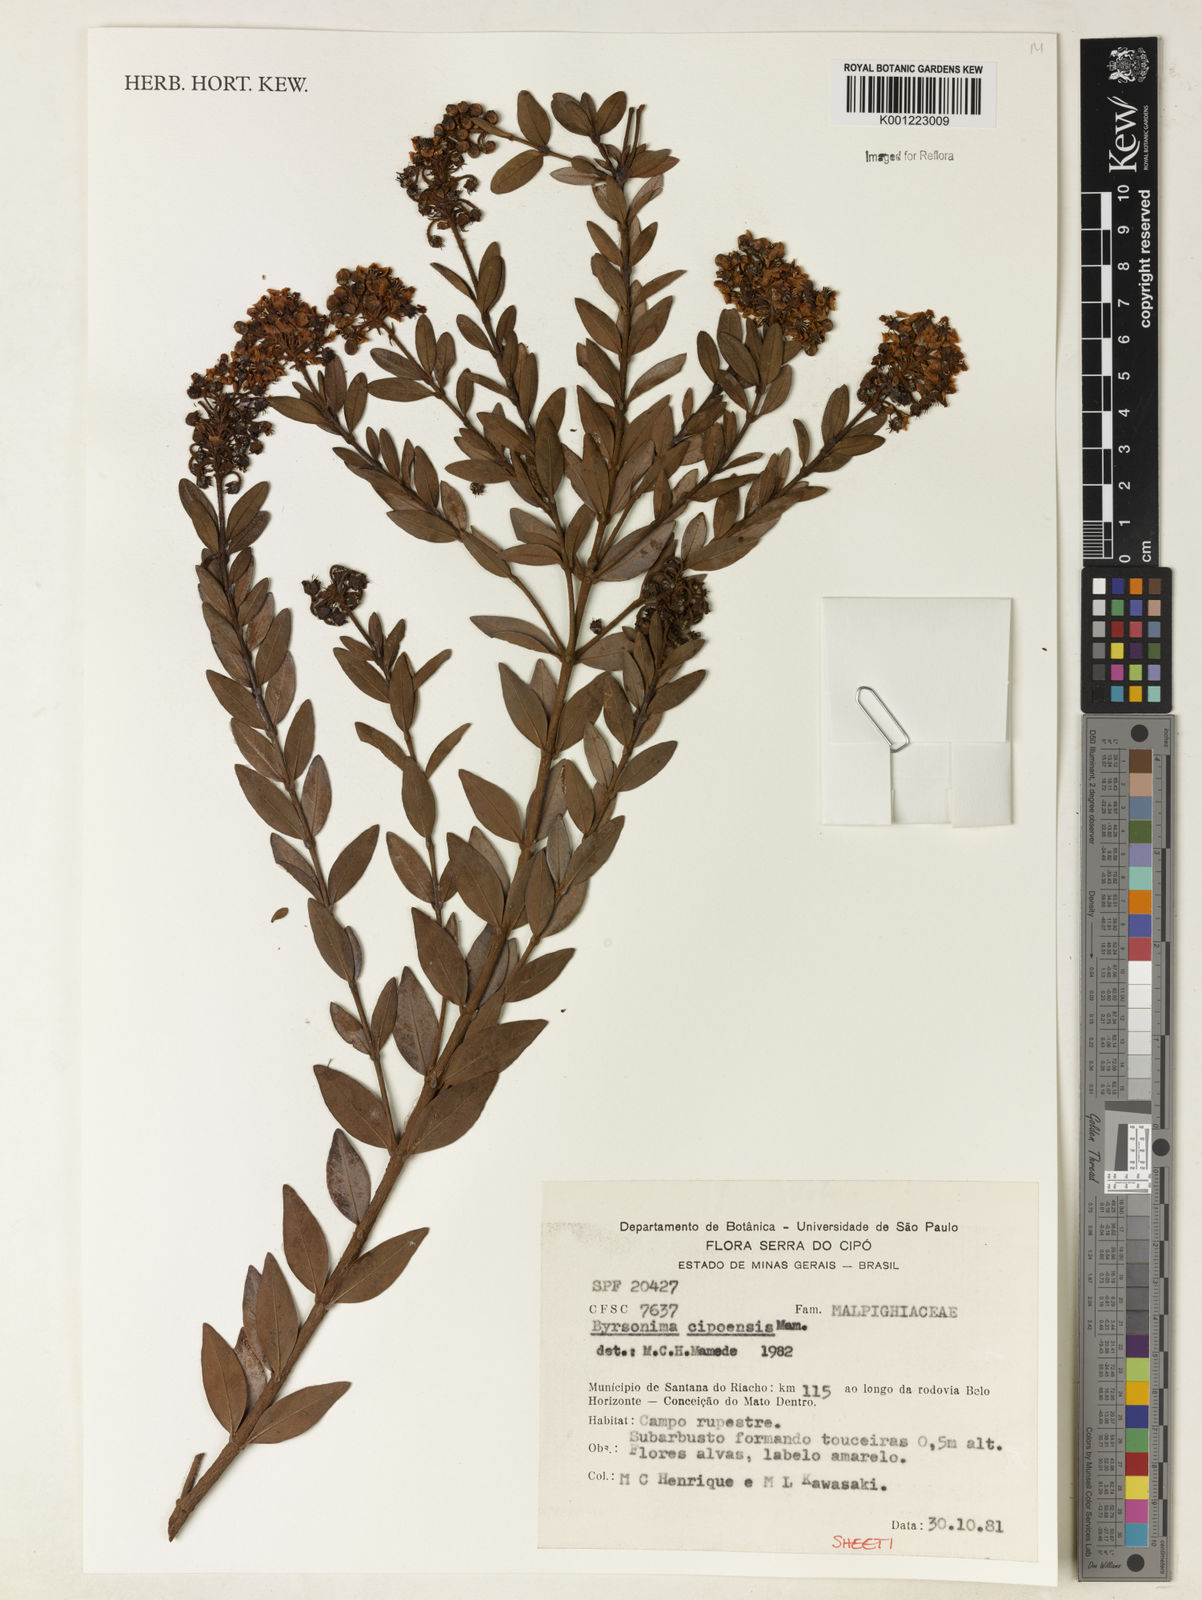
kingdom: Plantae
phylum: Tracheophyta
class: Magnoliopsida
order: Malpighiales
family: Malpighiaceae
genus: Byrsonima
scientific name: Byrsonima cipoensis
